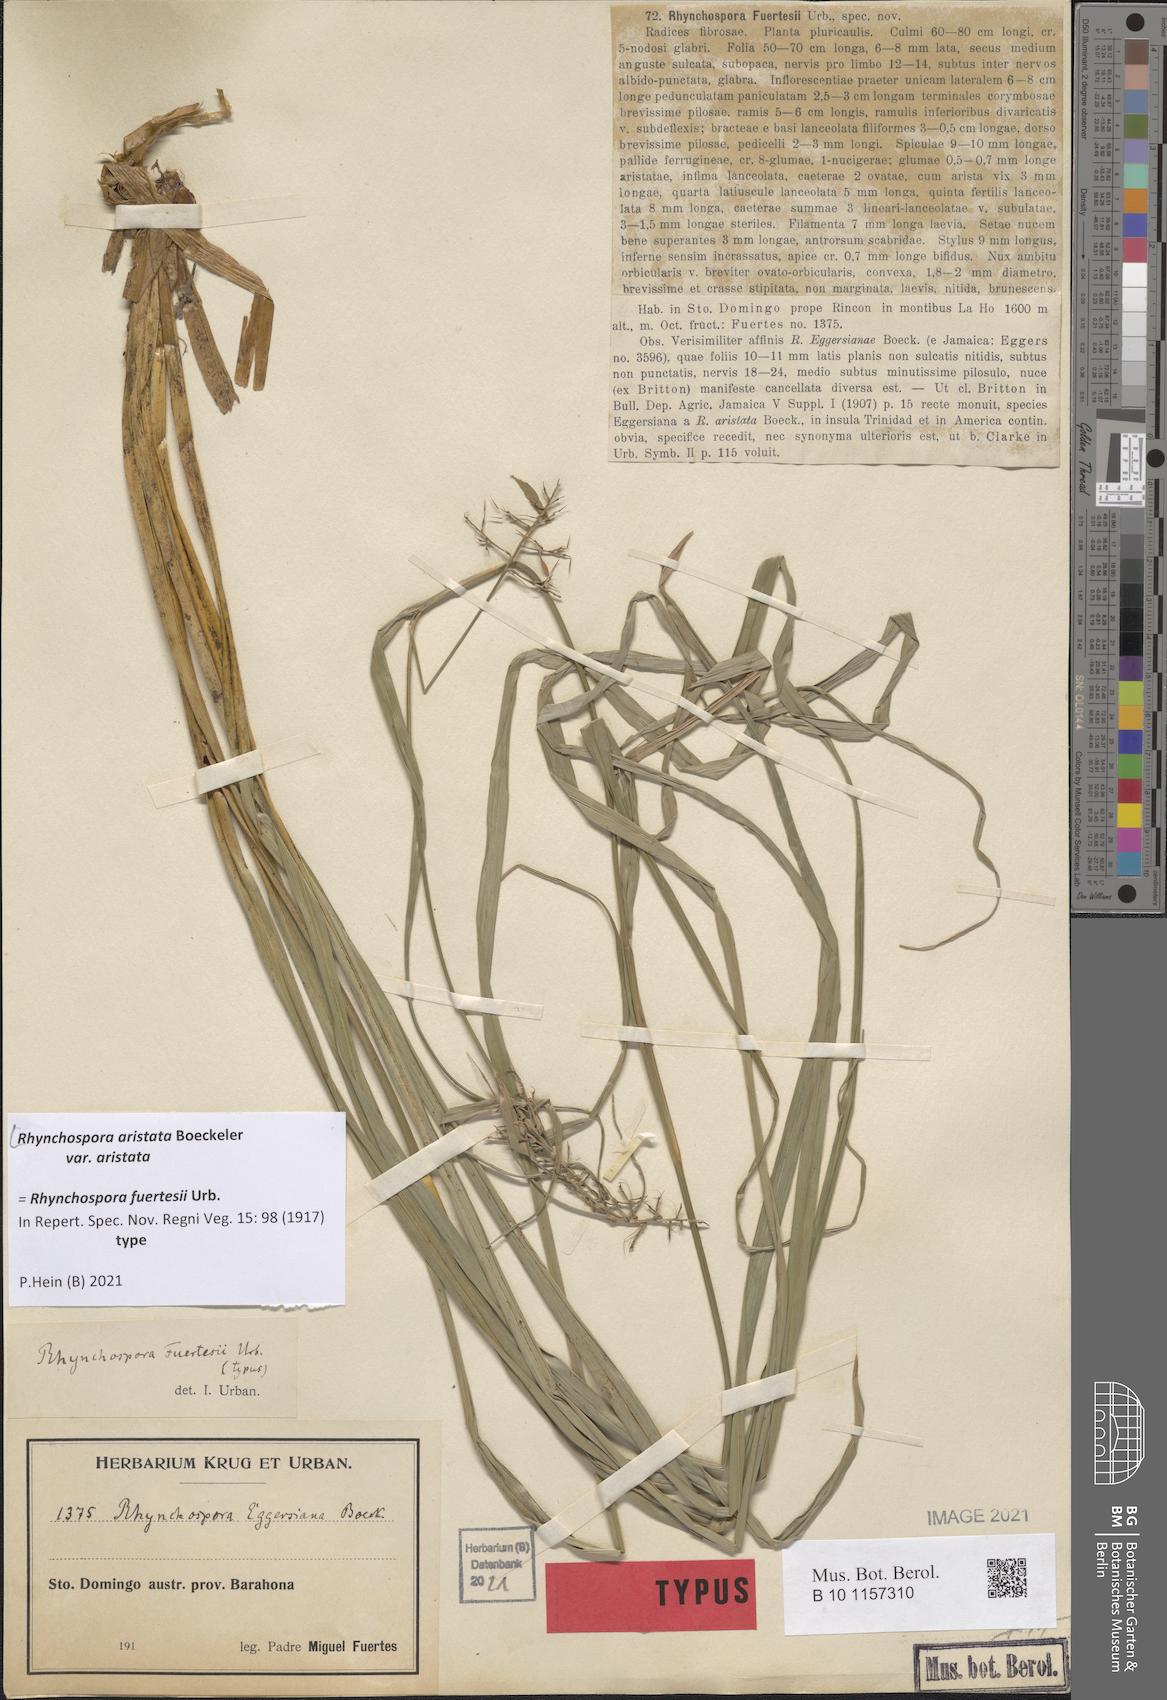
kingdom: Plantae
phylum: Tracheophyta
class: Liliopsida
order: Poales
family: Cyperaceae
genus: Rhynchospora
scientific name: Rhynchospora aristata
